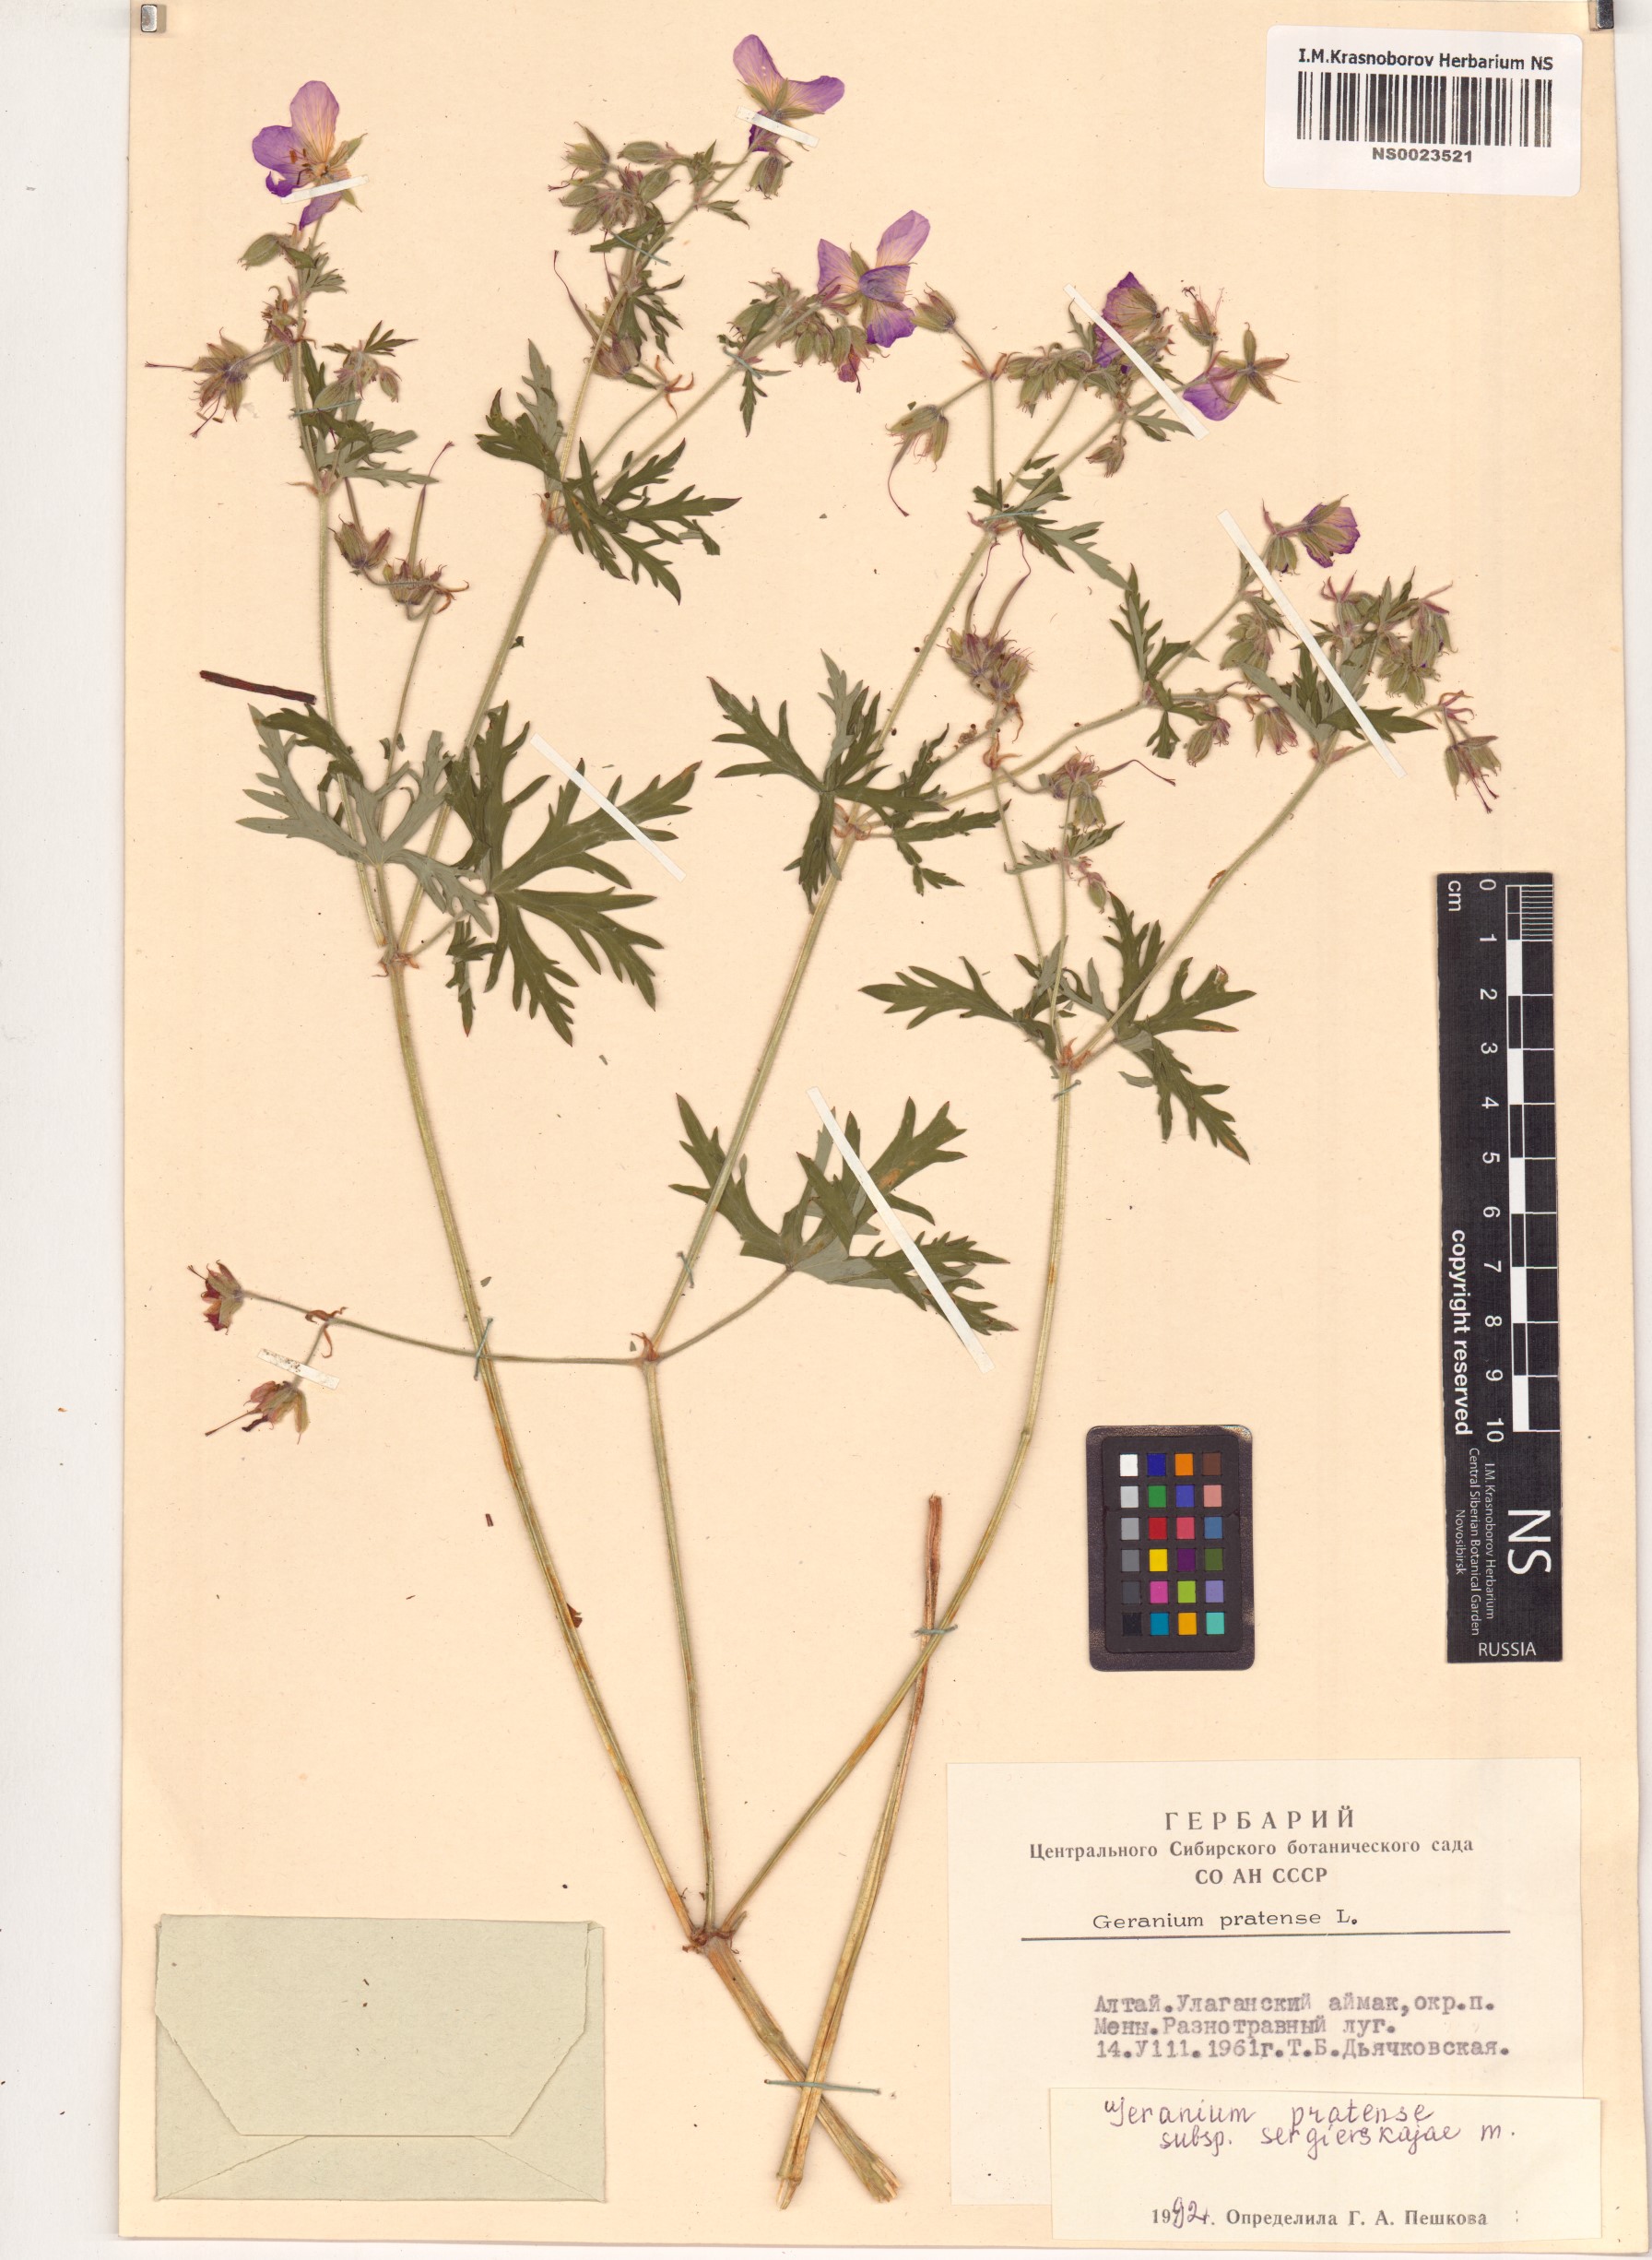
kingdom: Plantae
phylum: Tracheophyta
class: Magnoliopsida
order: Geraniales
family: Geraniaceae
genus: Geranium
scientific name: Geranium pratense
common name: Meadow crane's-bill
